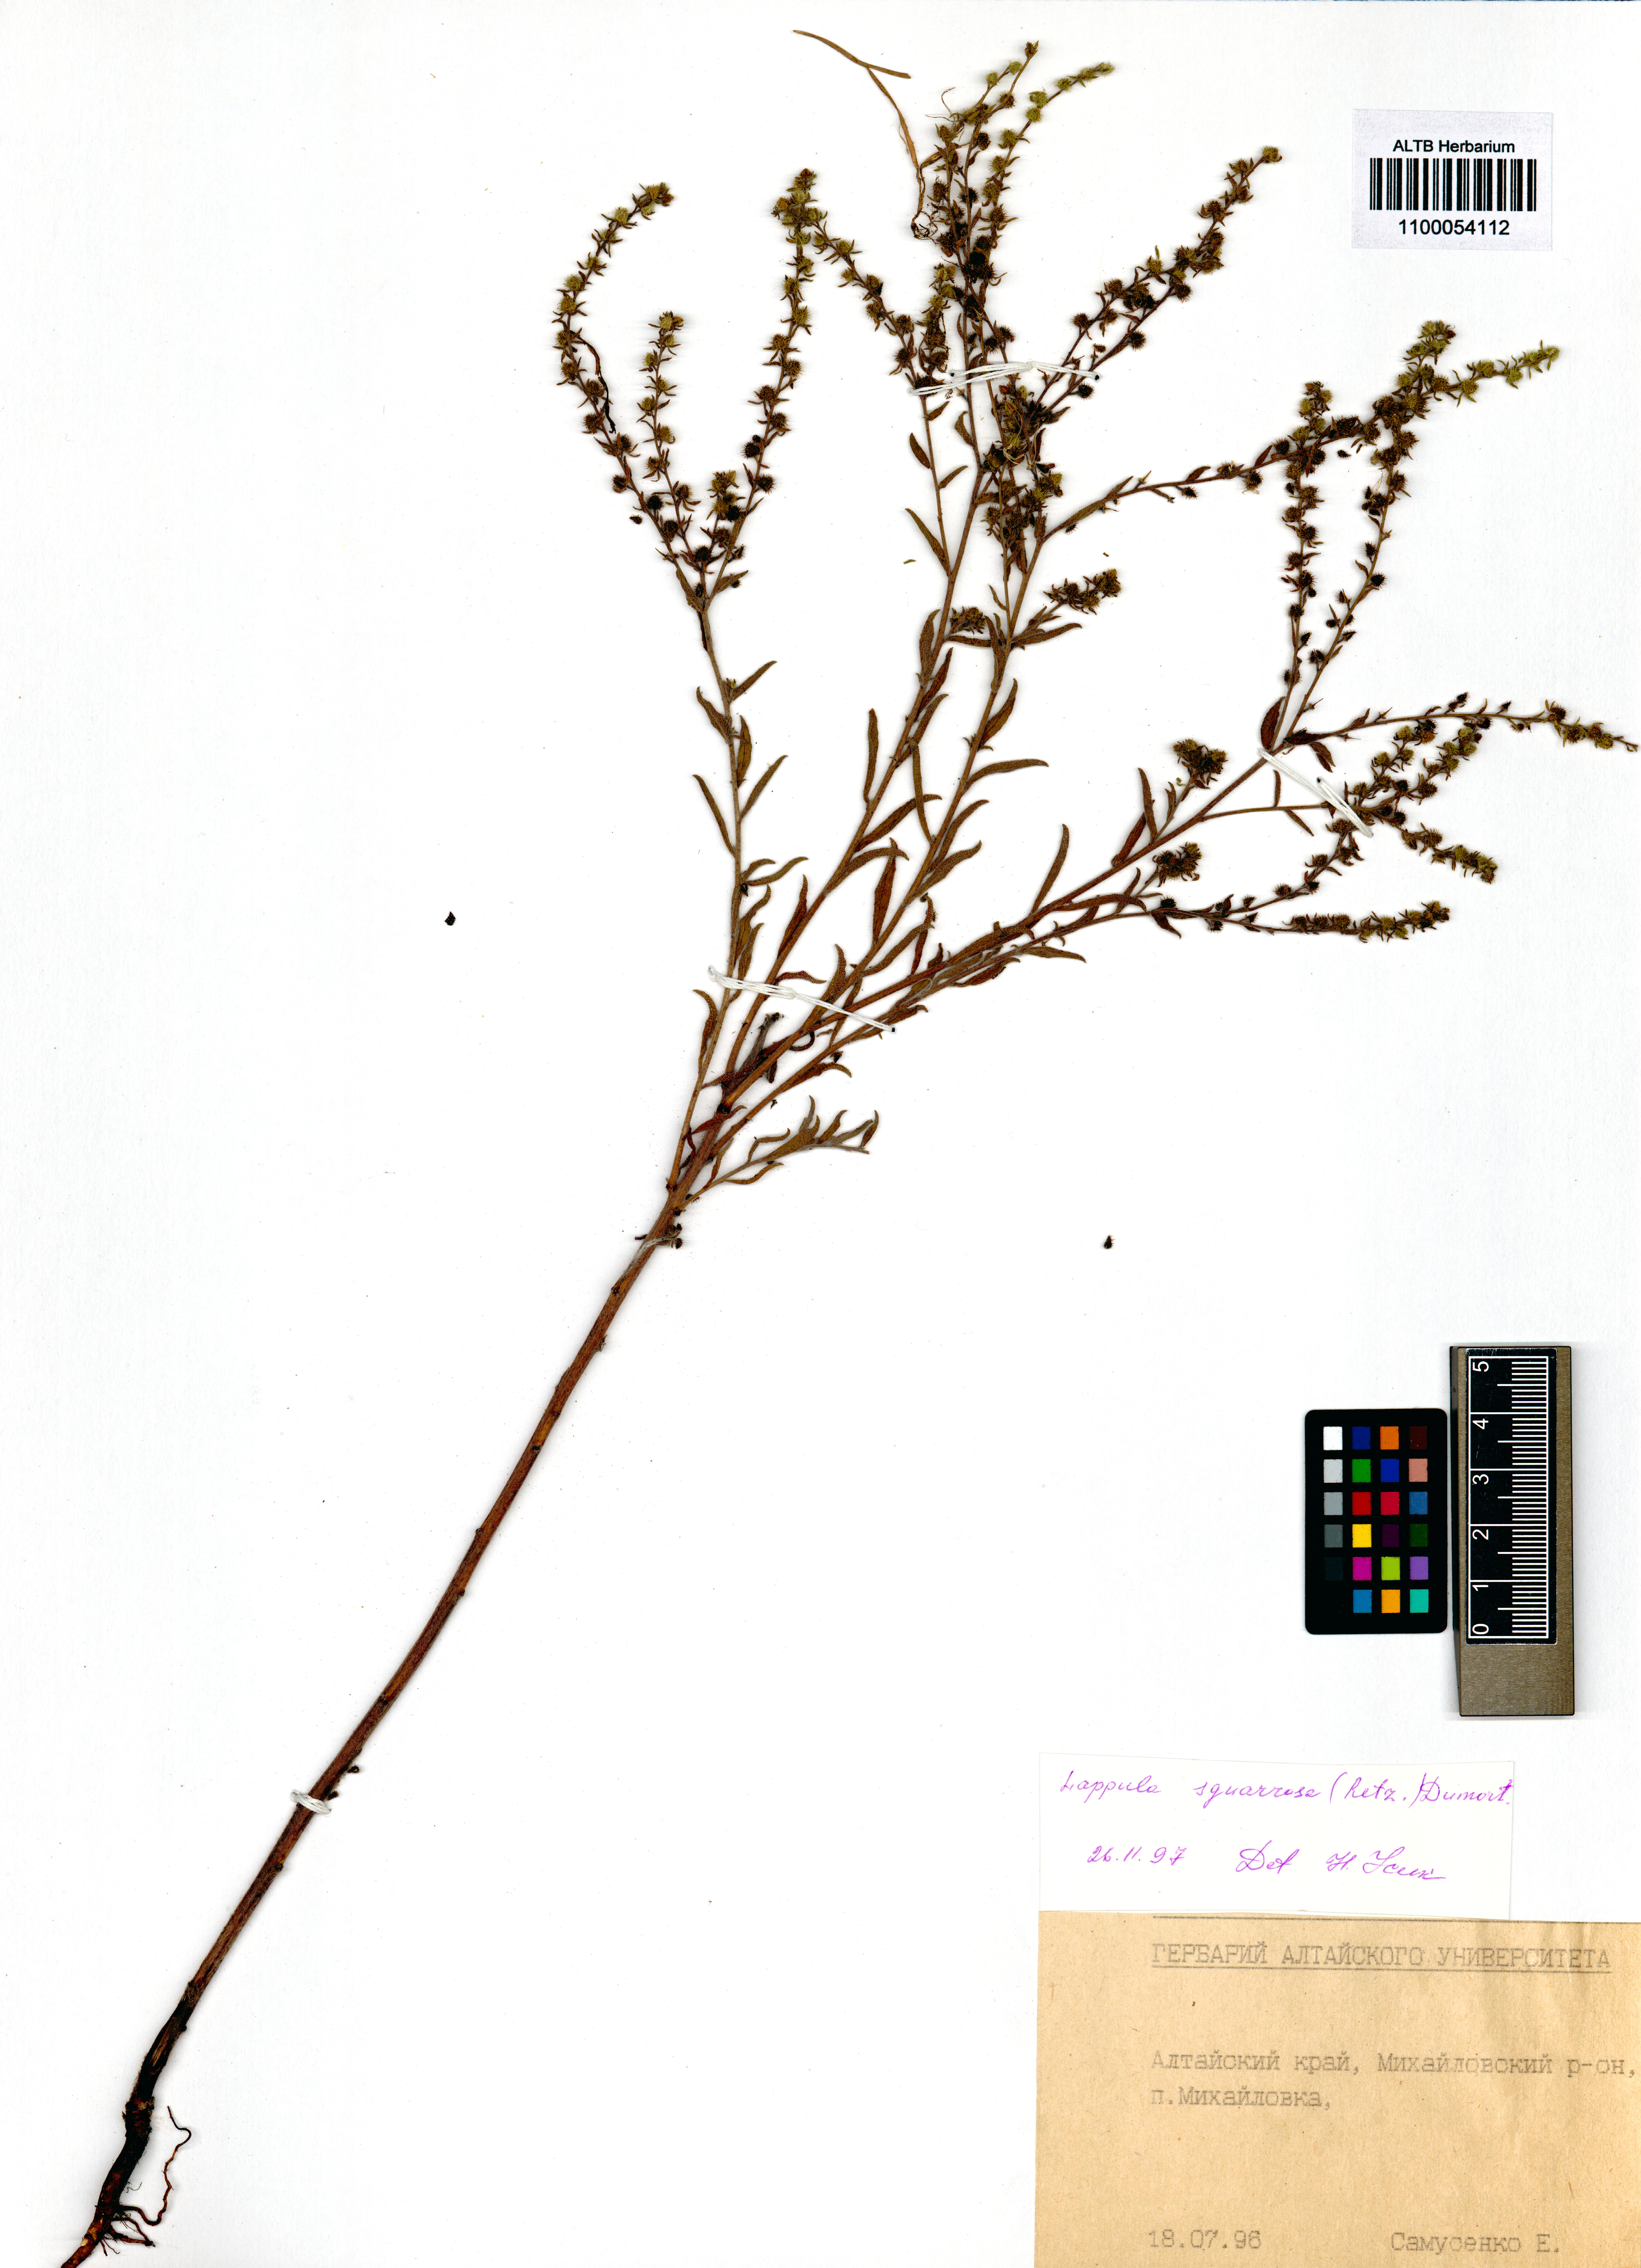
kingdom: Plantae
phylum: Tracheophyta
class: Magnoliopsida
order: Boraginales
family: Boraginaceae
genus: Lappula
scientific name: Lappula squarrosa
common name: European stickseed
